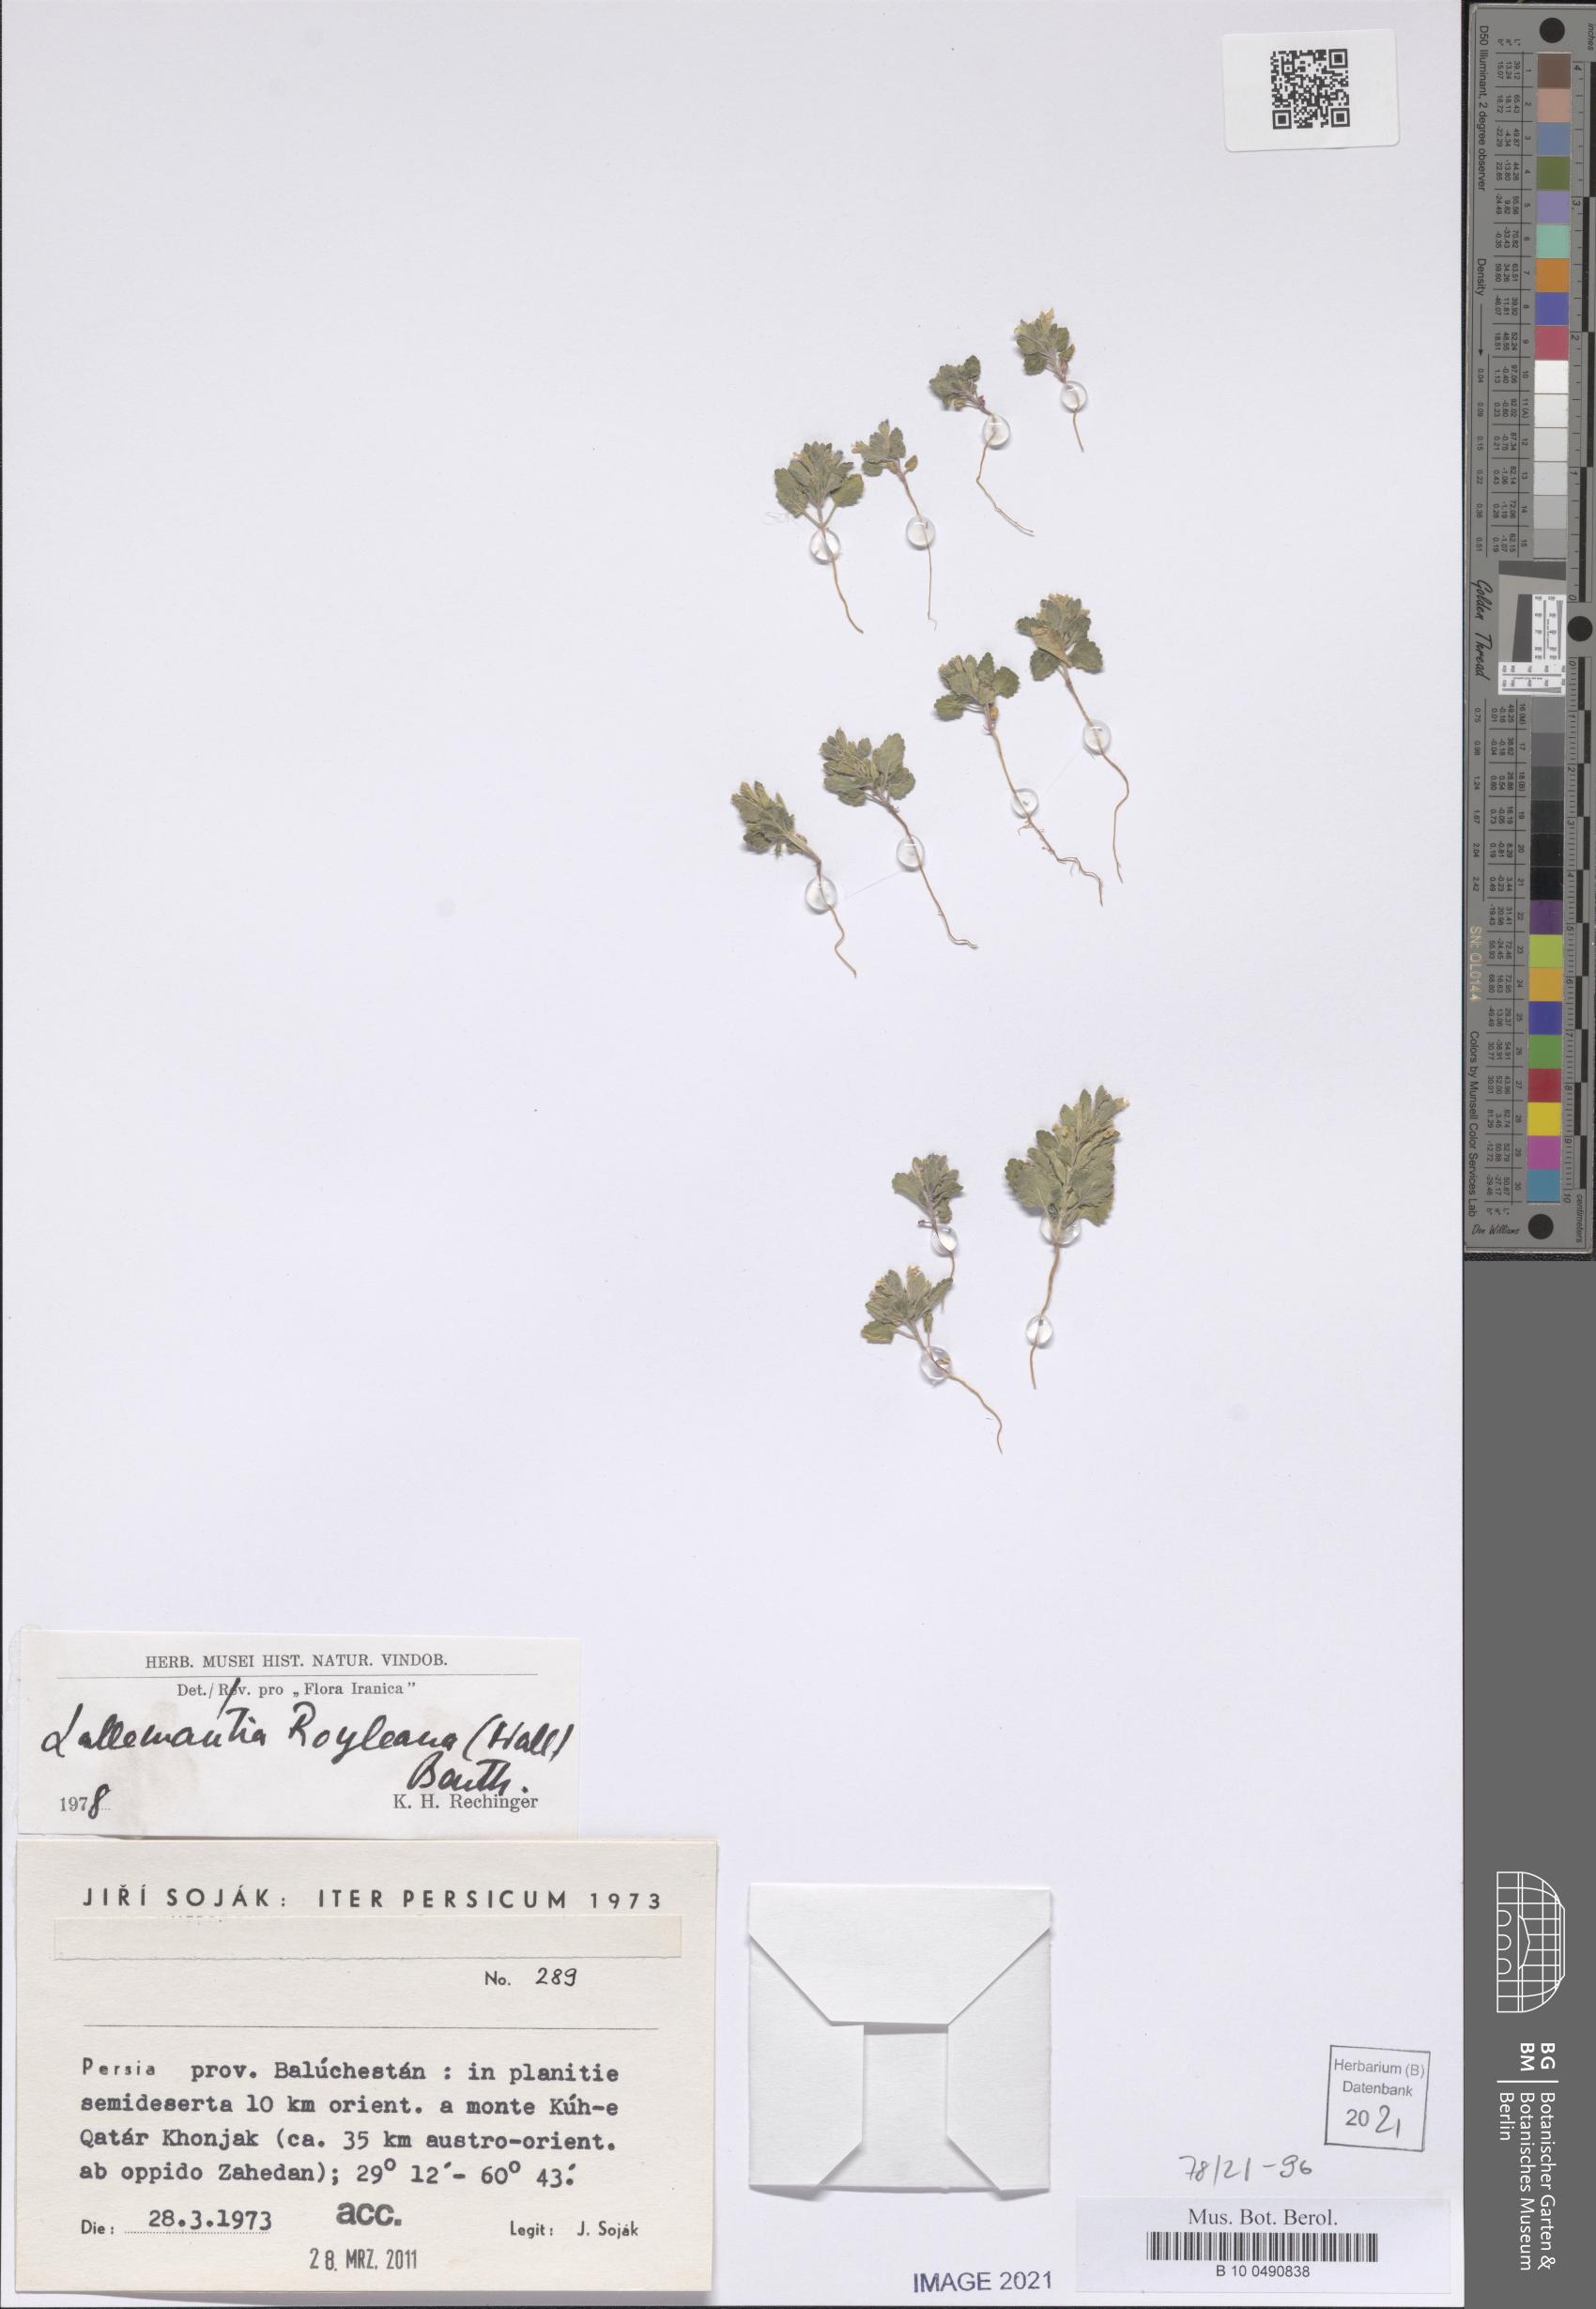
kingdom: Plantae
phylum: Tracheophyta
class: Magnoliopsida
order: Lamiales
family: Lamiaceae
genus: Lallemantia
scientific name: Lallemantia royleana
